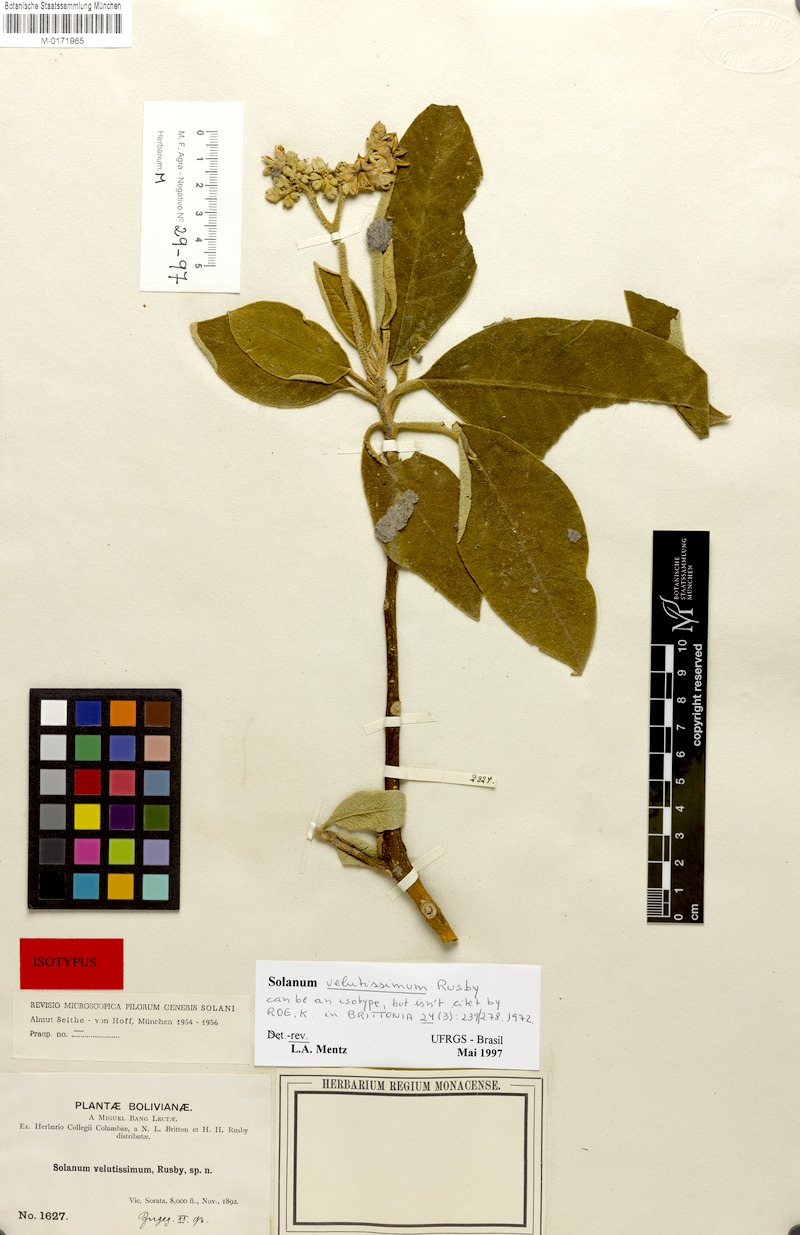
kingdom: Plantae
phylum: Tracheophyta
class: Magnoliopsida
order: Solanales
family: Solanaceae
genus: Solanum
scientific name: Solanum velutissimum
